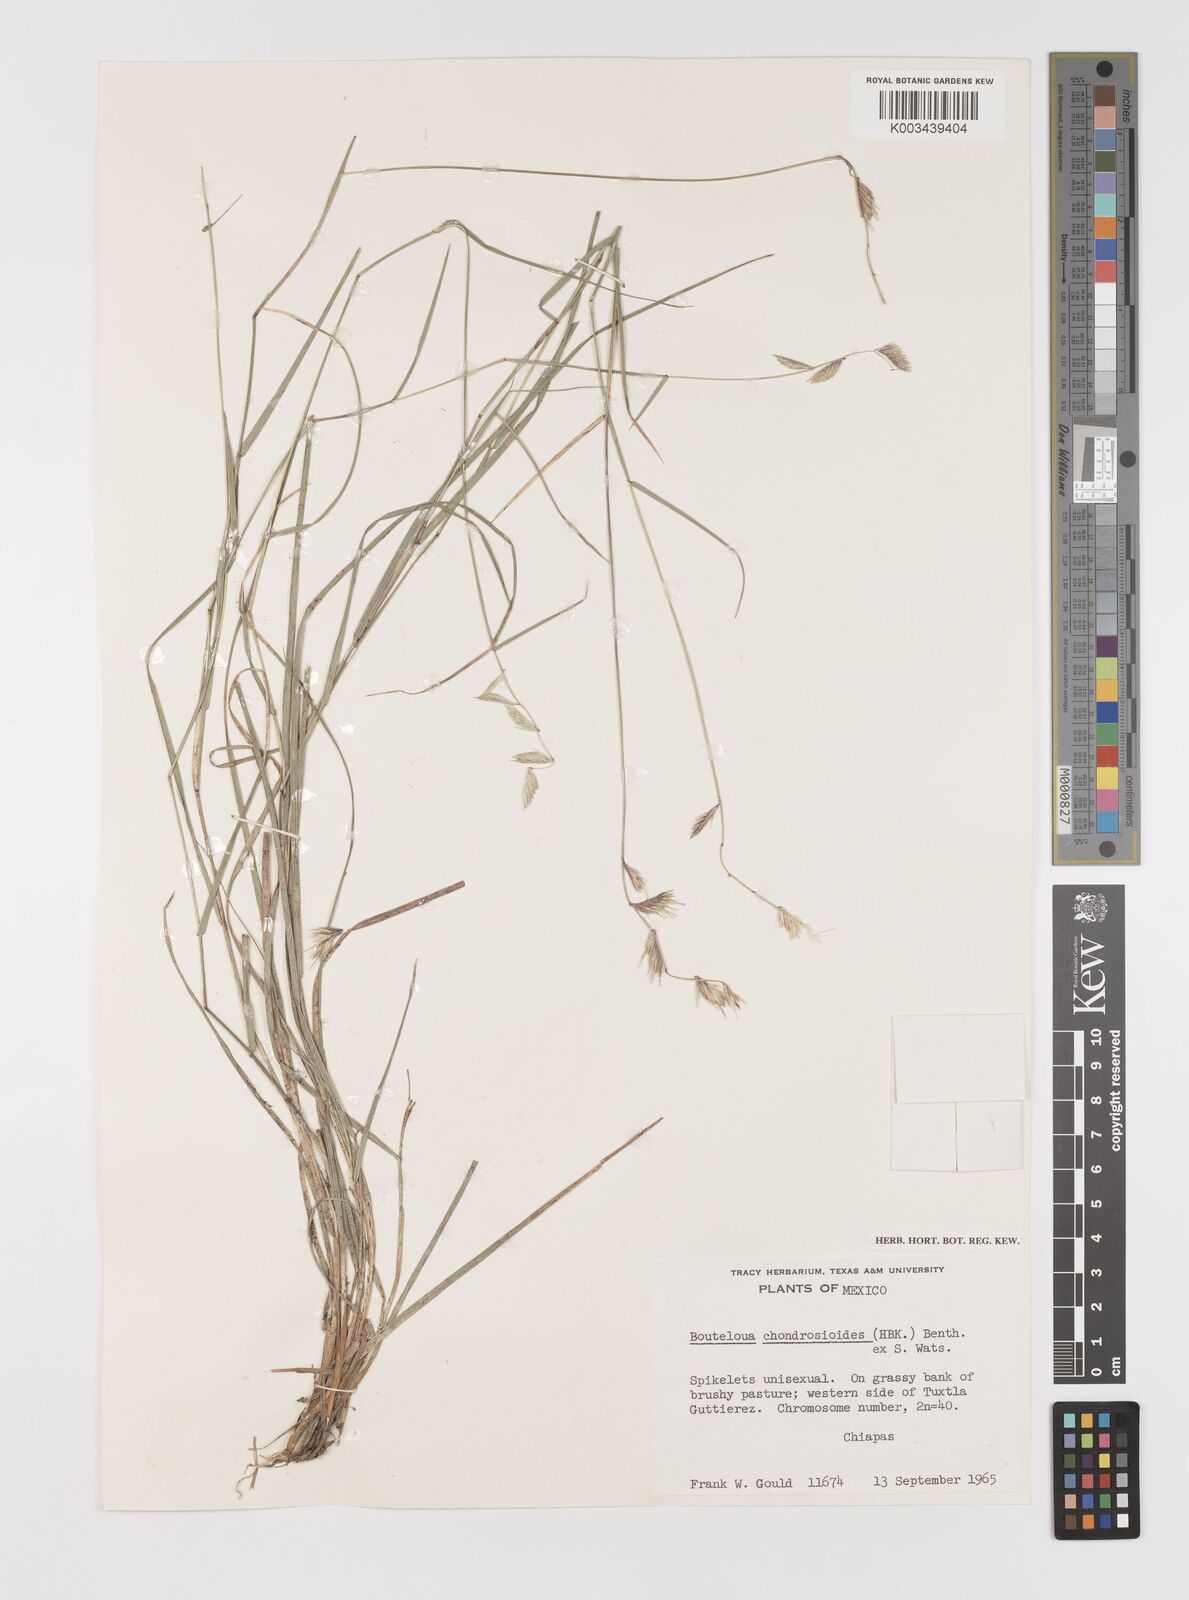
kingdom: Plantae
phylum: Tracheophyta
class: Liliopsida
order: Poales
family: Poaceae
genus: Bouteloua
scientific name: Bouteloua chondrosioides
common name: Sprucetop grama
